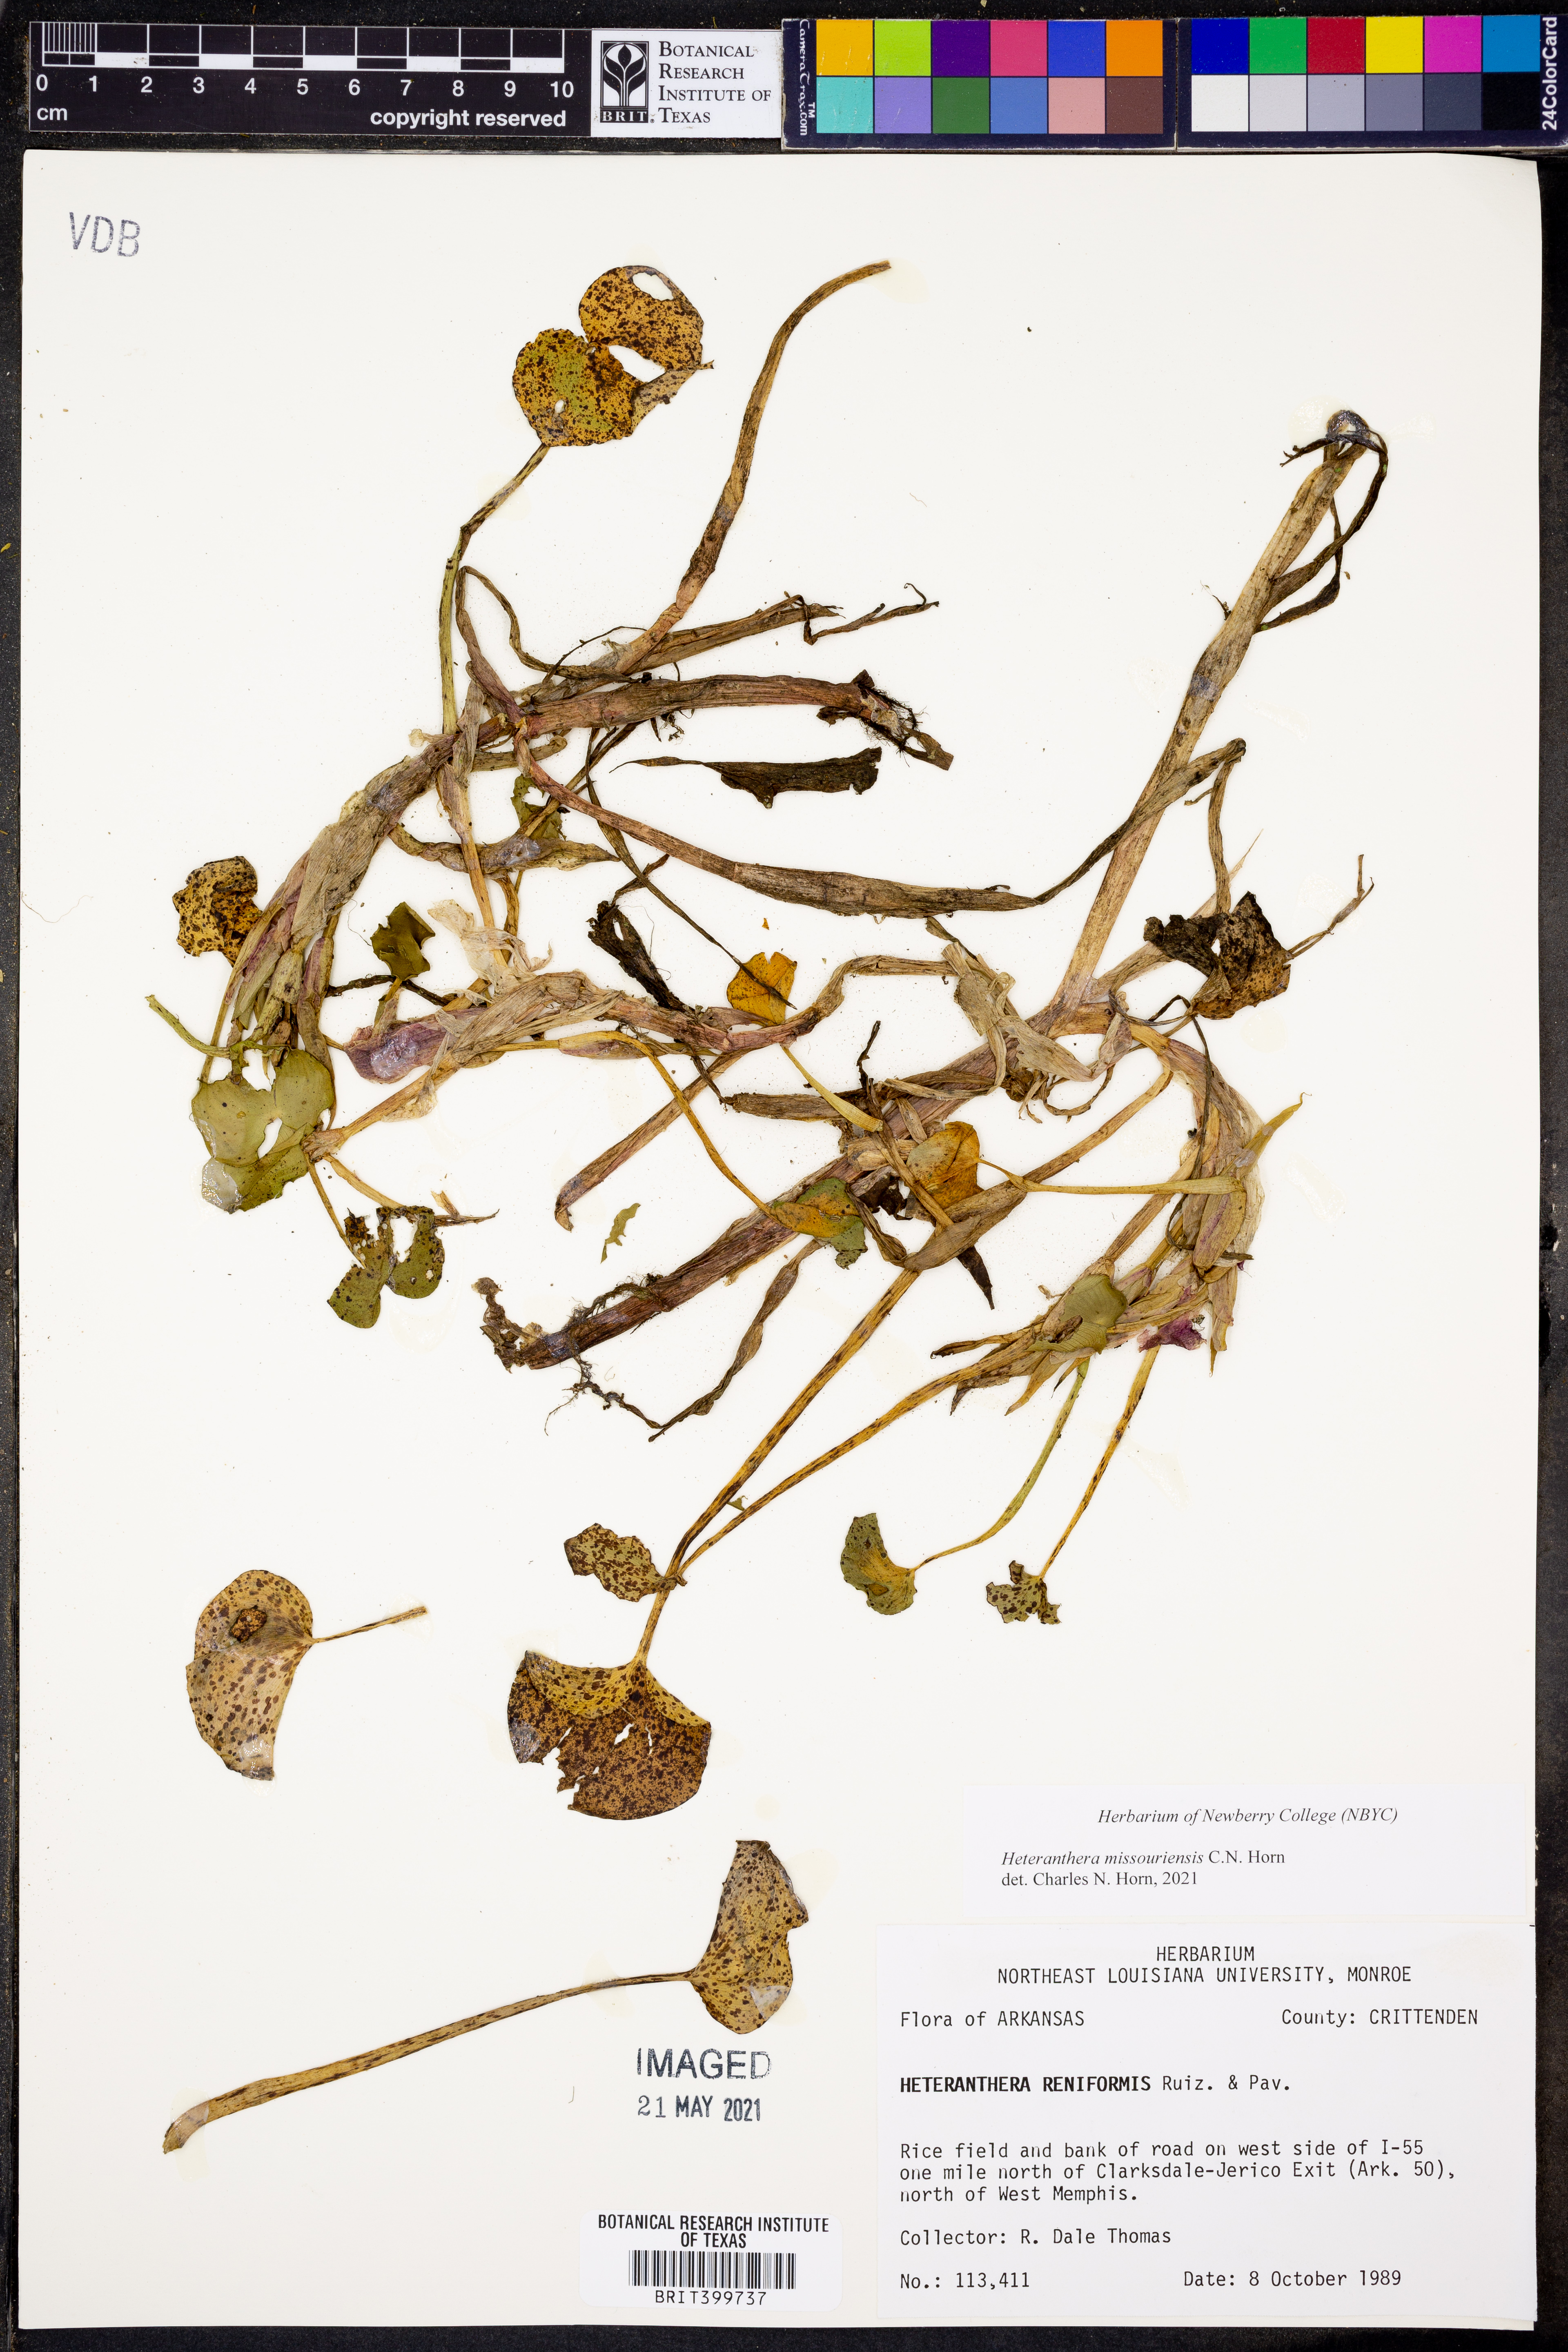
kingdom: Plantae
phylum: Tracheophyta
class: Liliopsida
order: Commelinales
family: Pontederiaceae
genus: Heteranthera
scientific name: Heteranthera missouriensis
